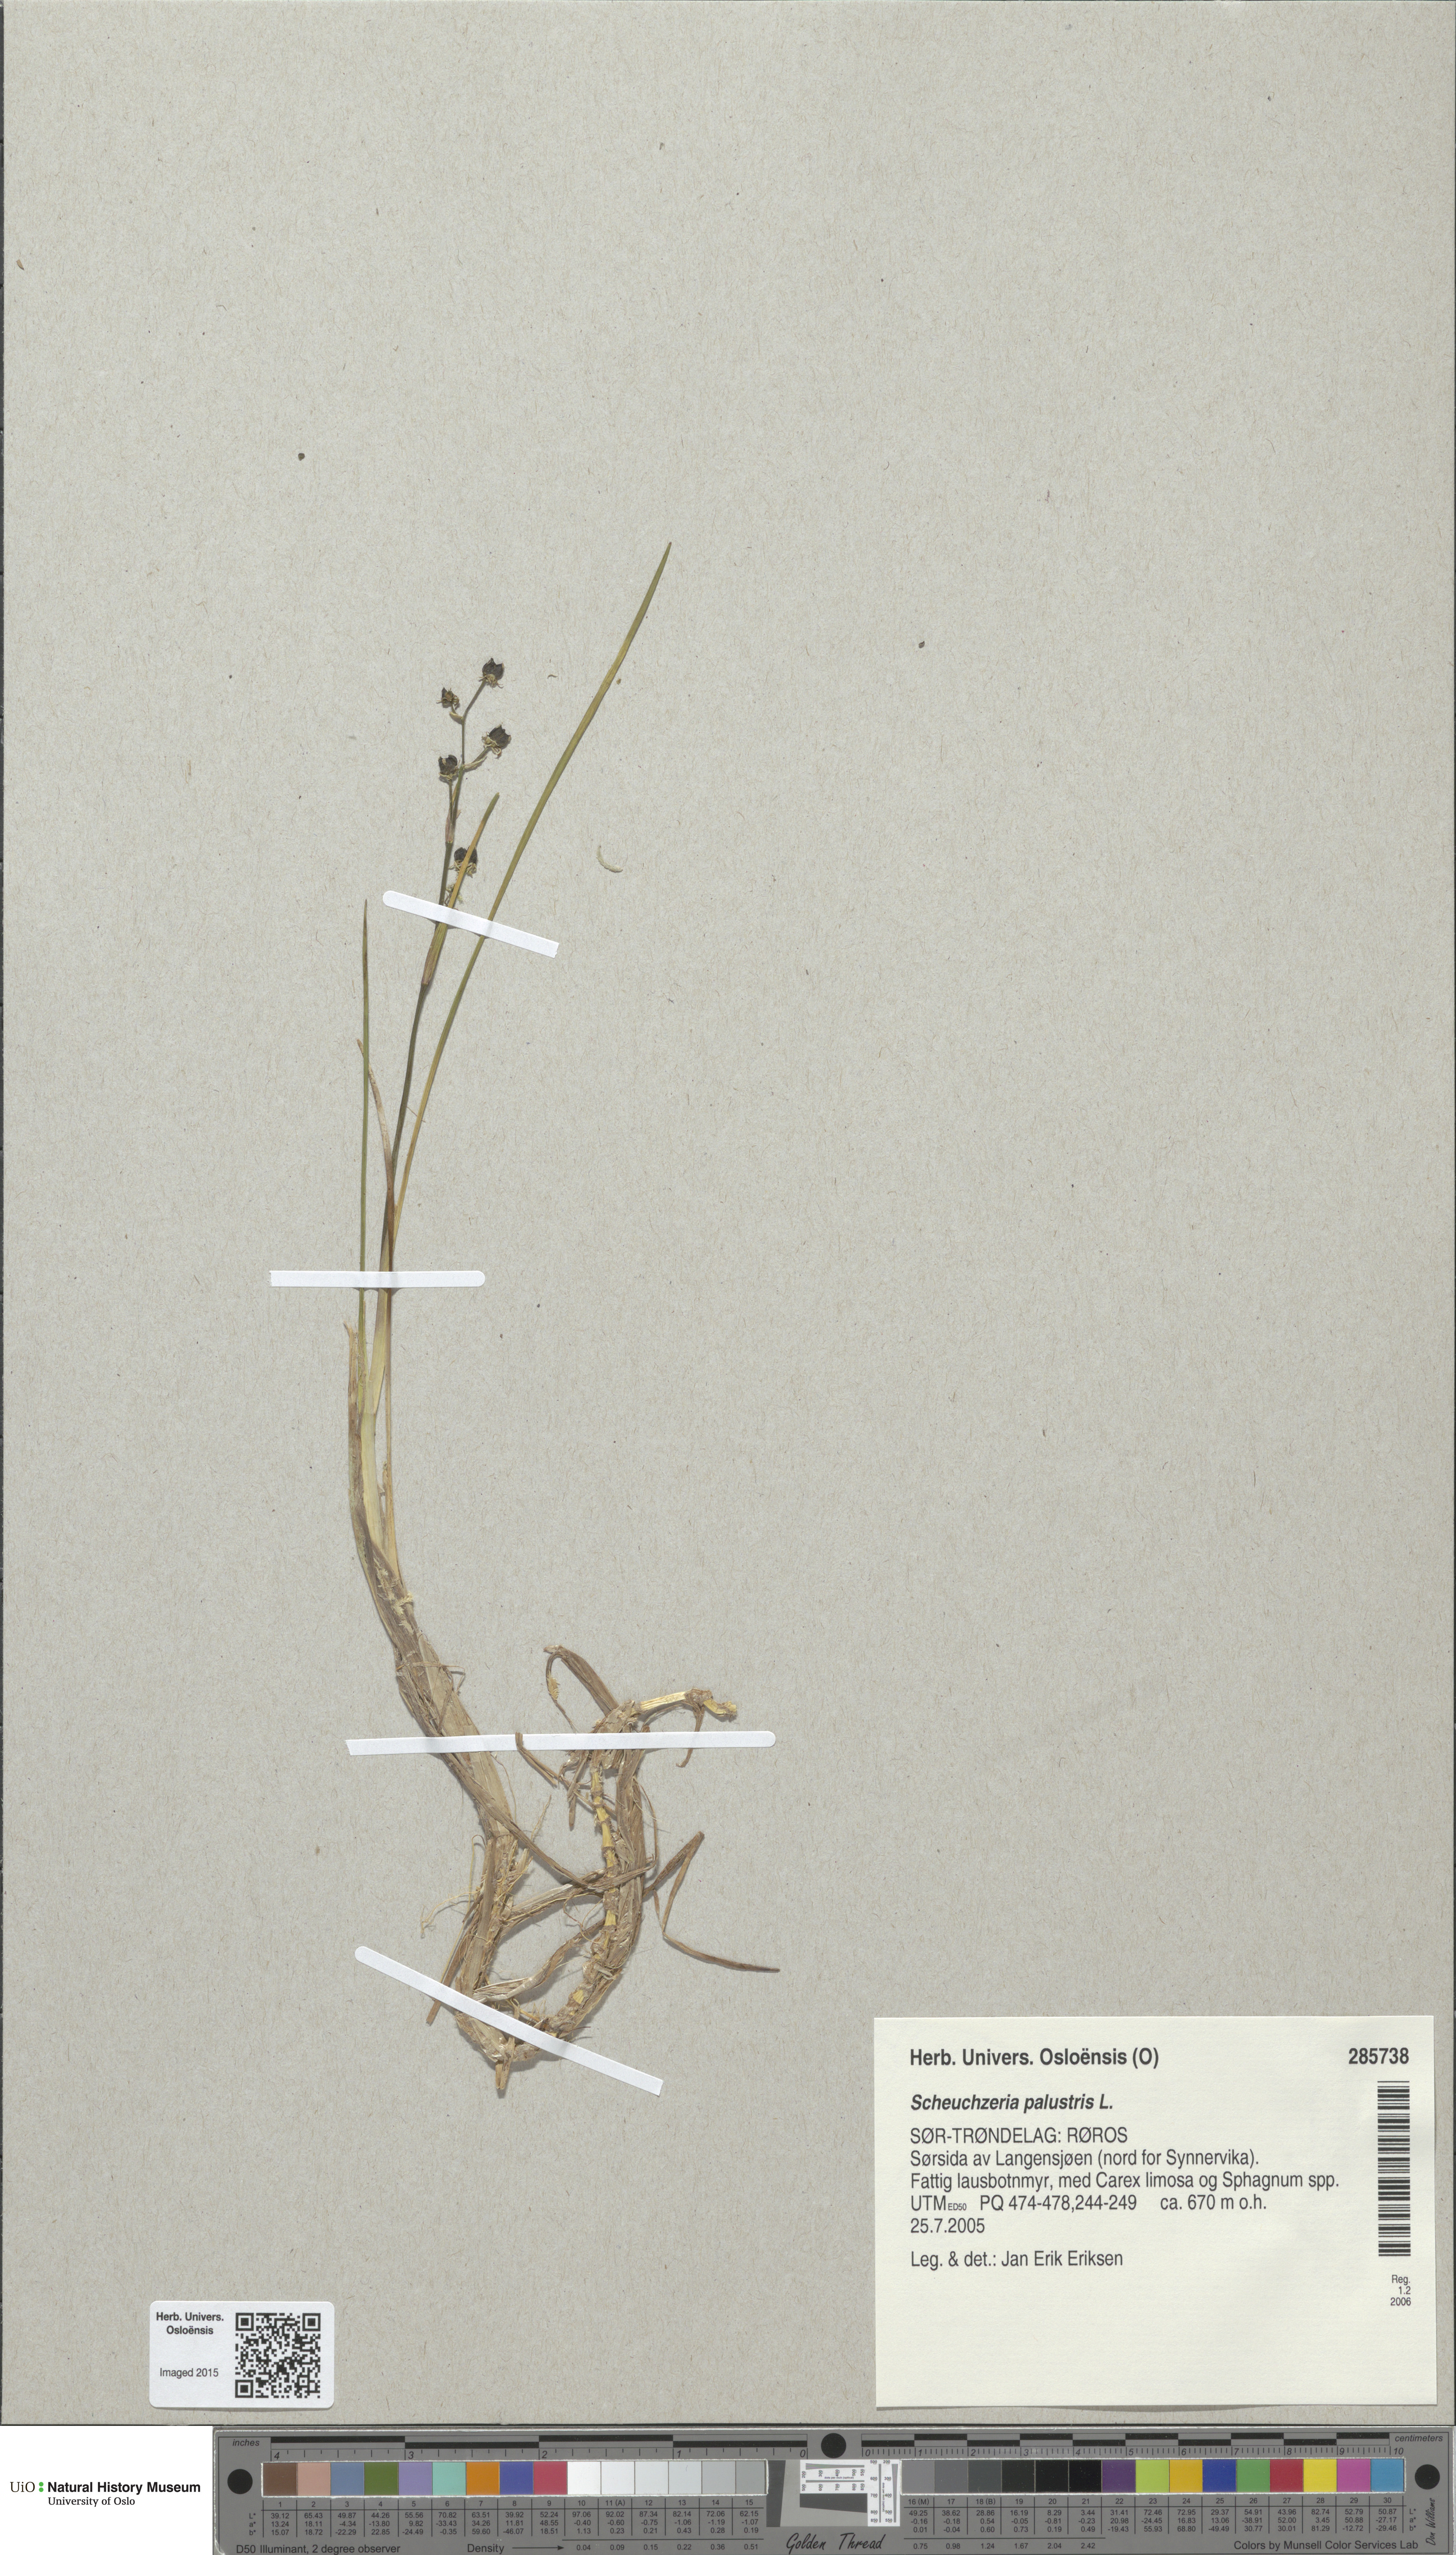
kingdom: Plantae
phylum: Tracheophyta
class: Liliopsida
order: Alismatales
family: Scheuchzeriaceae
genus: Scheuchzeria
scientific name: Scheuchzeria palustris
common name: Rannoch-rush
